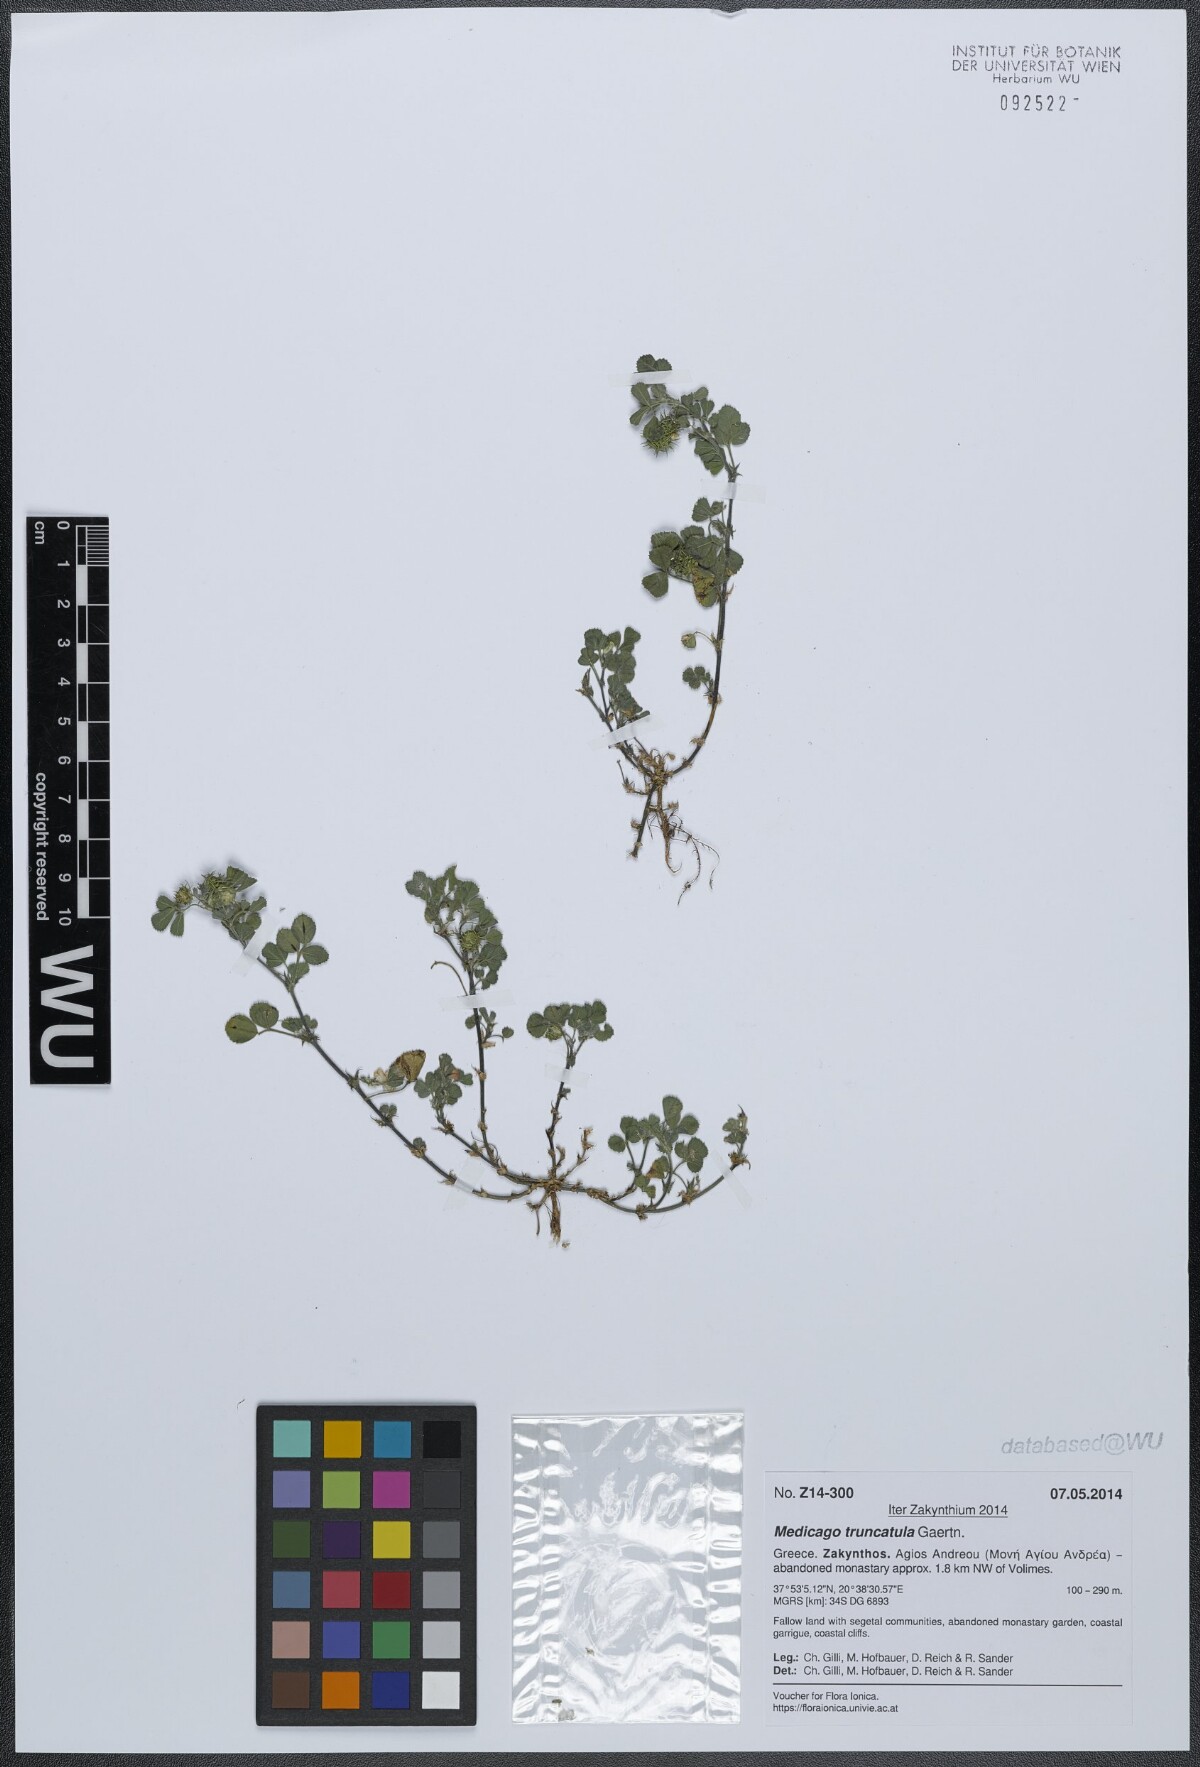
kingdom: Plantae
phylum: Tracheophyta
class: Magnoliopsida
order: Fabales
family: Fabaceae
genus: Medicago
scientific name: Medicago truncatula
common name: Strong-spined medick
